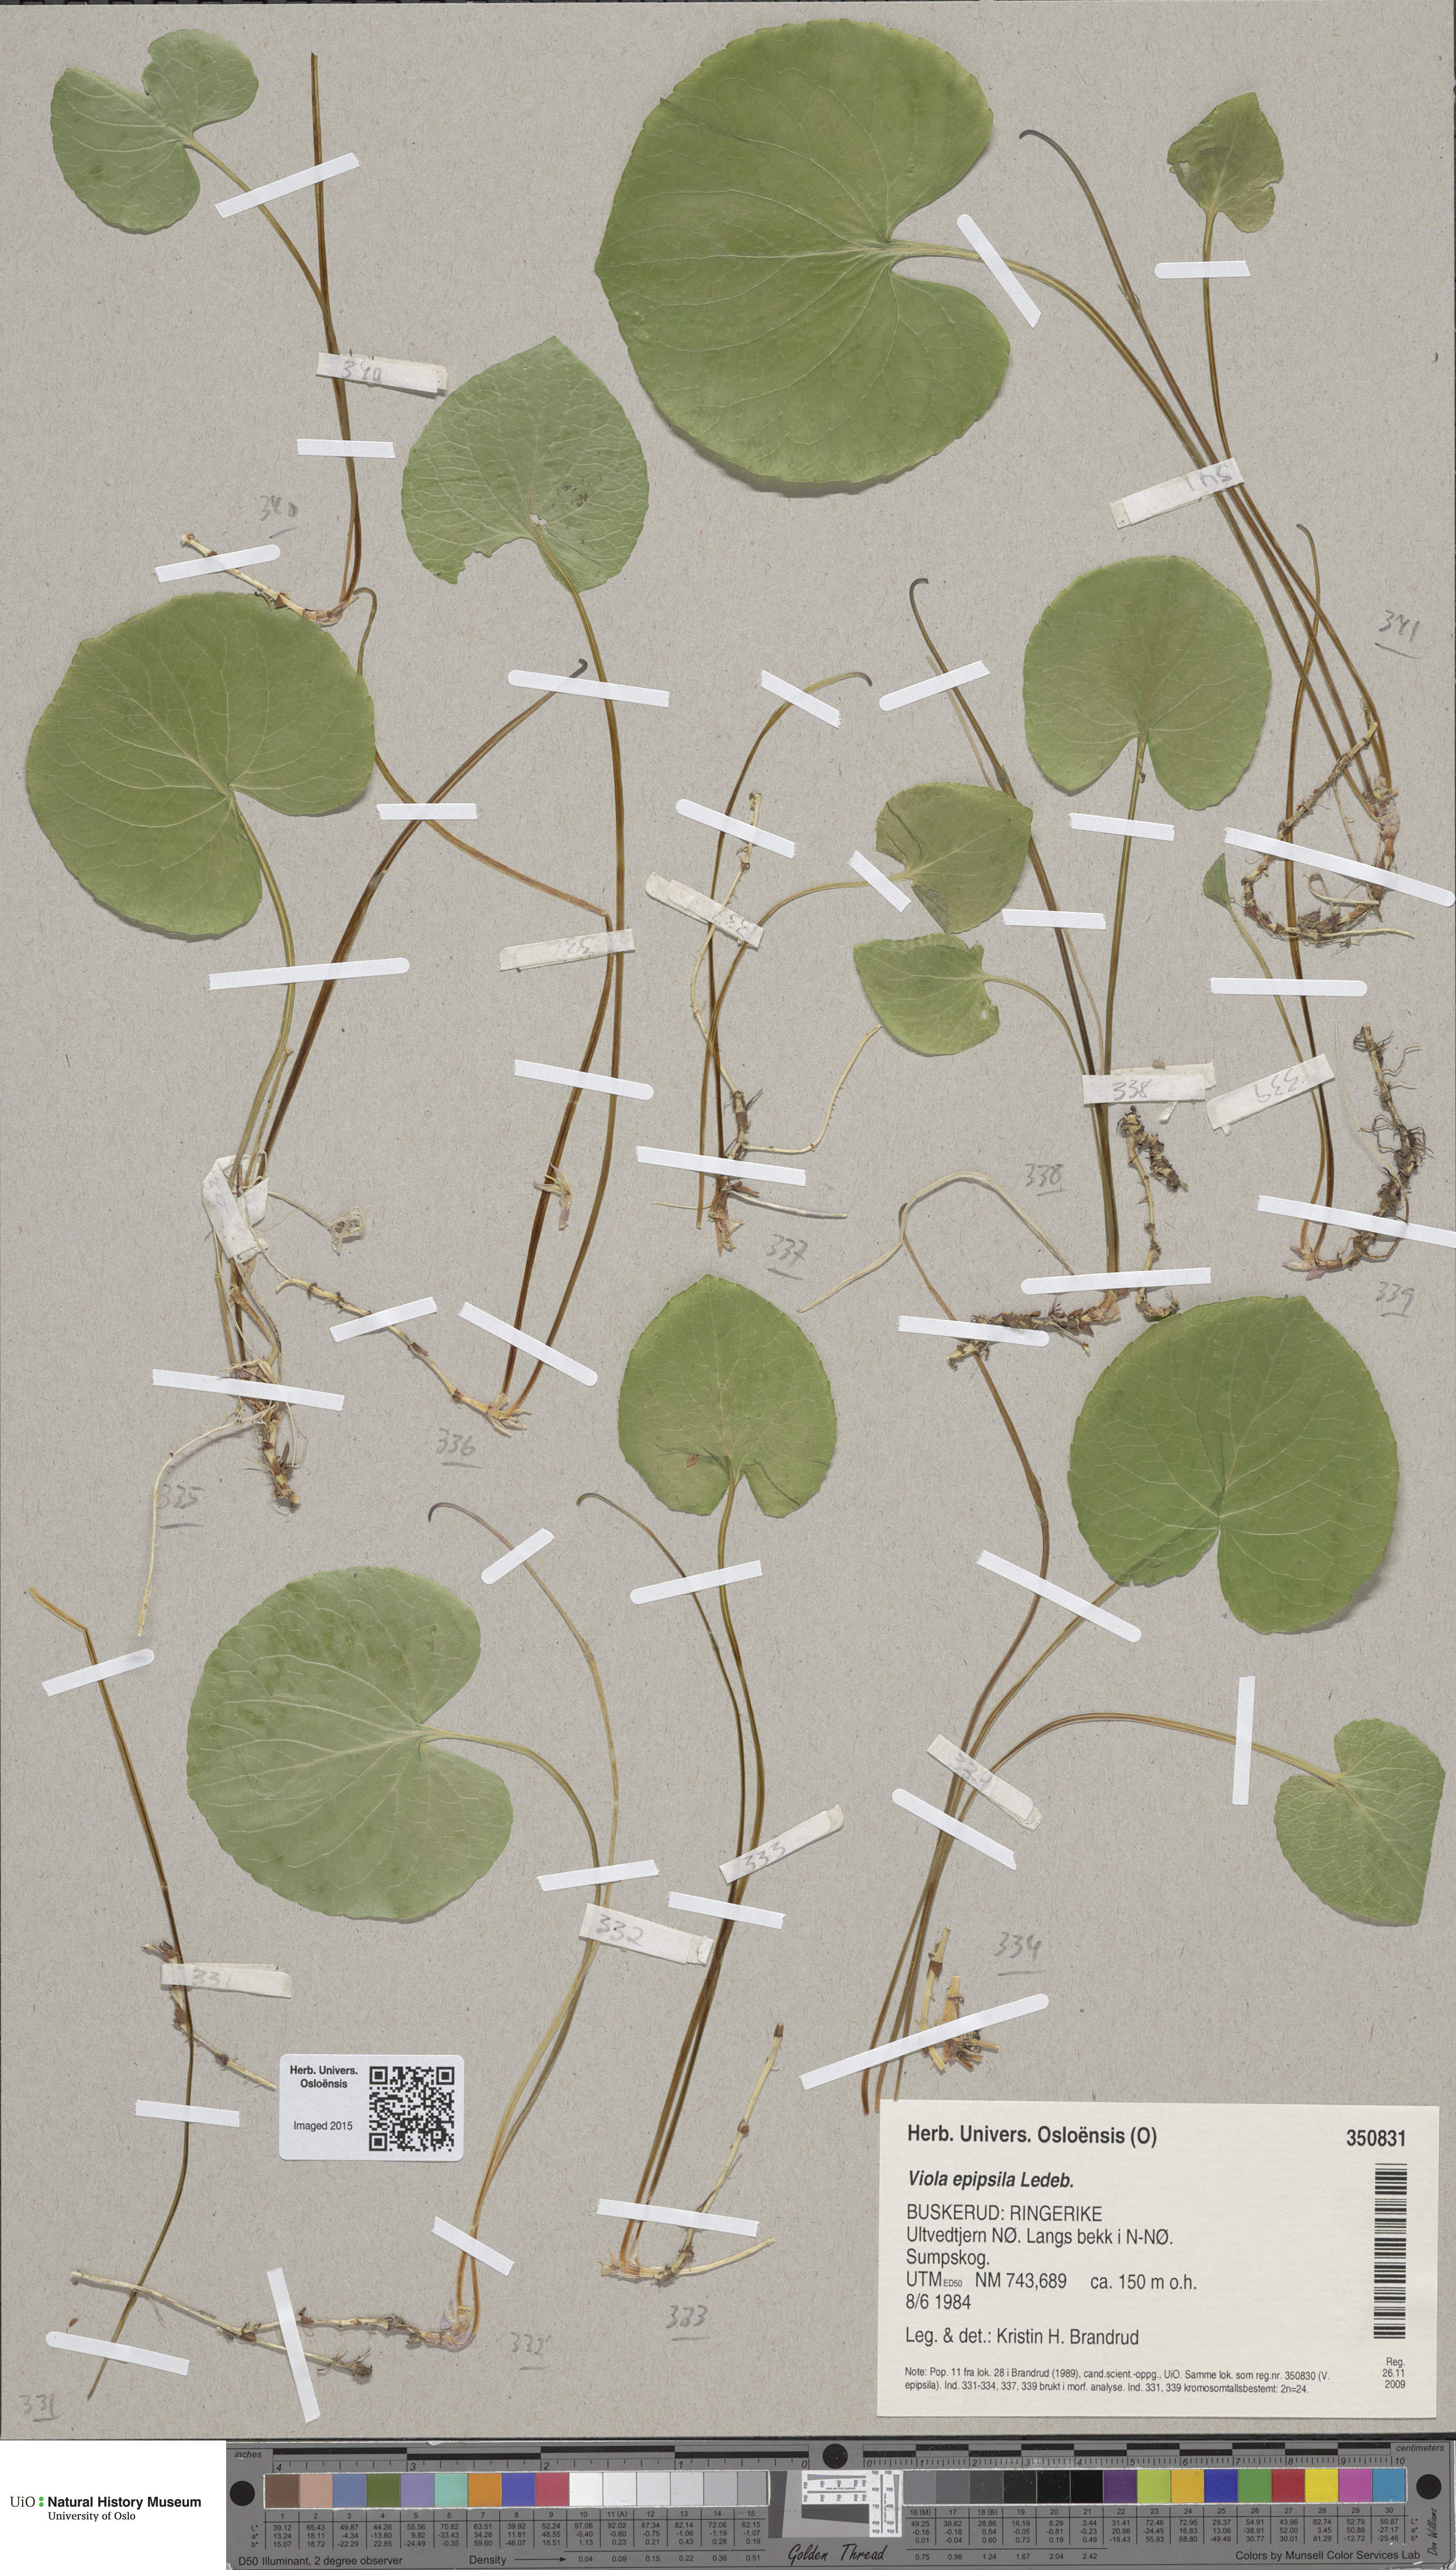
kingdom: Plantae
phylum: Tracheophyta
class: Magnoliopsida
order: Malpighiales
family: Violaceae
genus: Viola
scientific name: Viola epipsila
